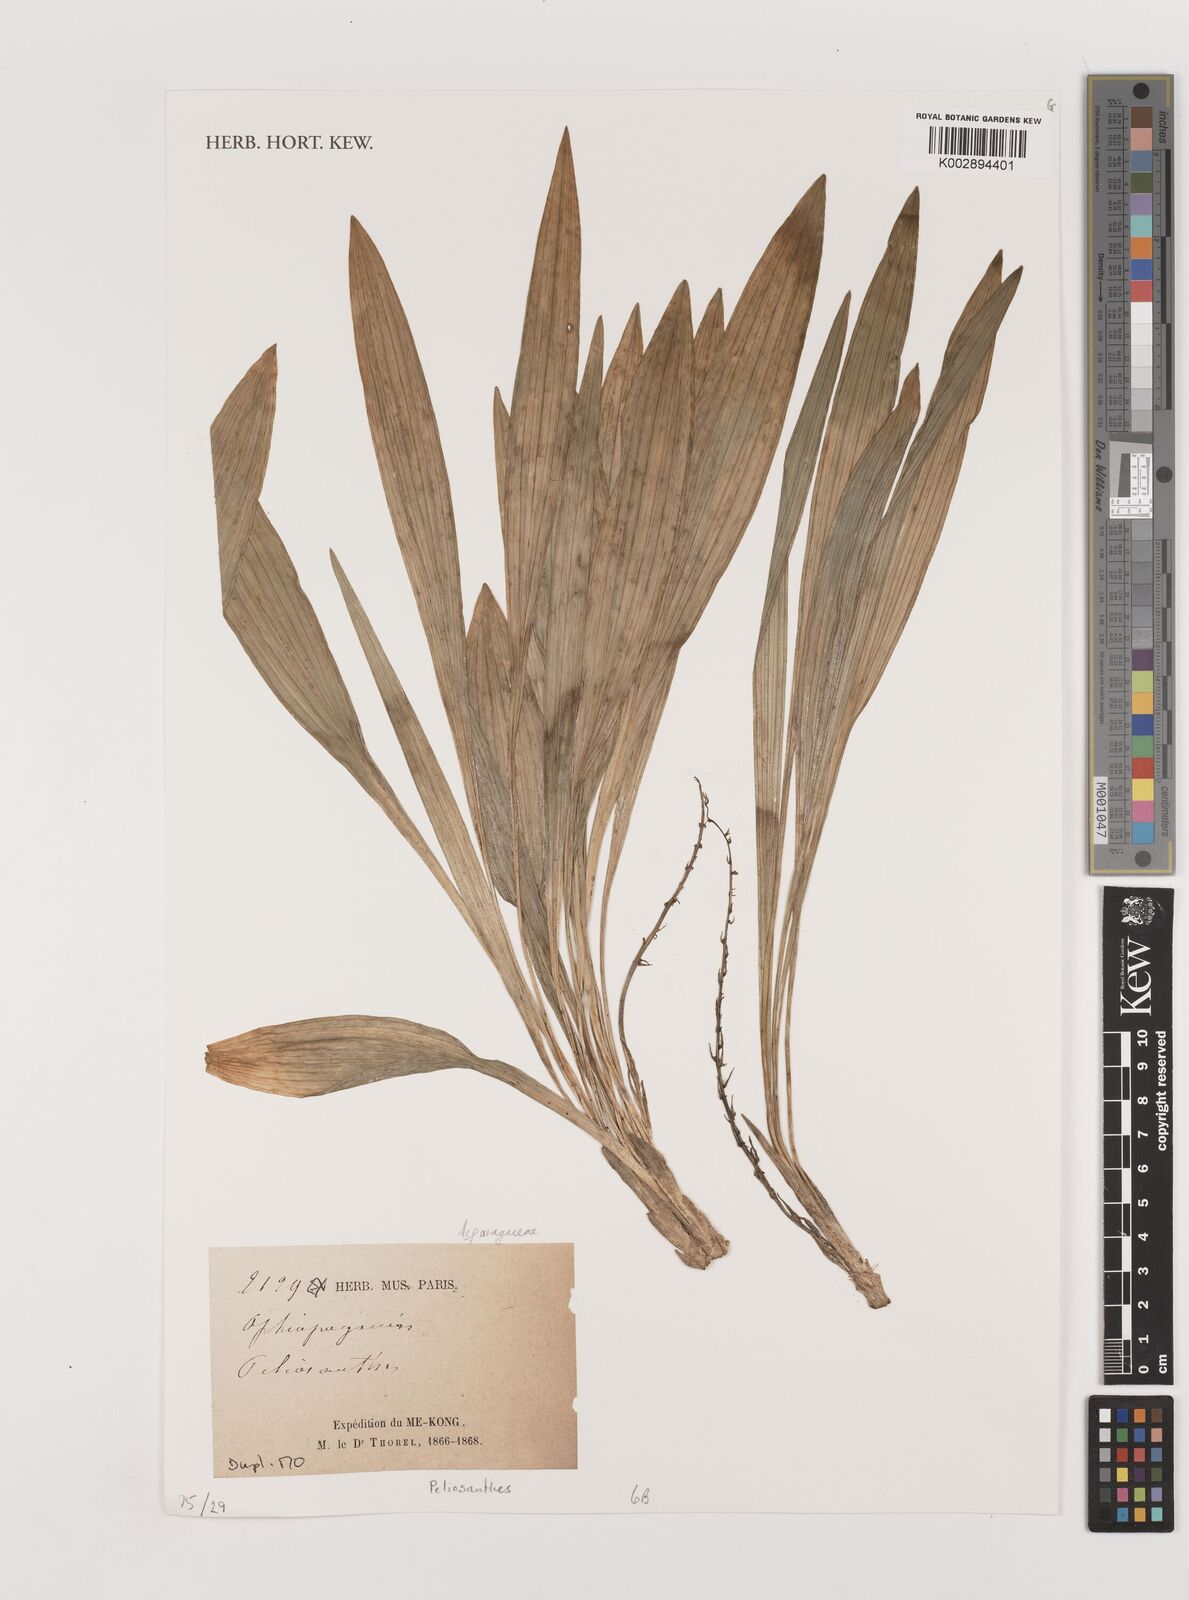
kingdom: Plantae
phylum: Tracheophyta
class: Liliopsida
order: Asparagales
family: Asparagaceae
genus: Peliosanthes
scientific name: Peliosanthes
